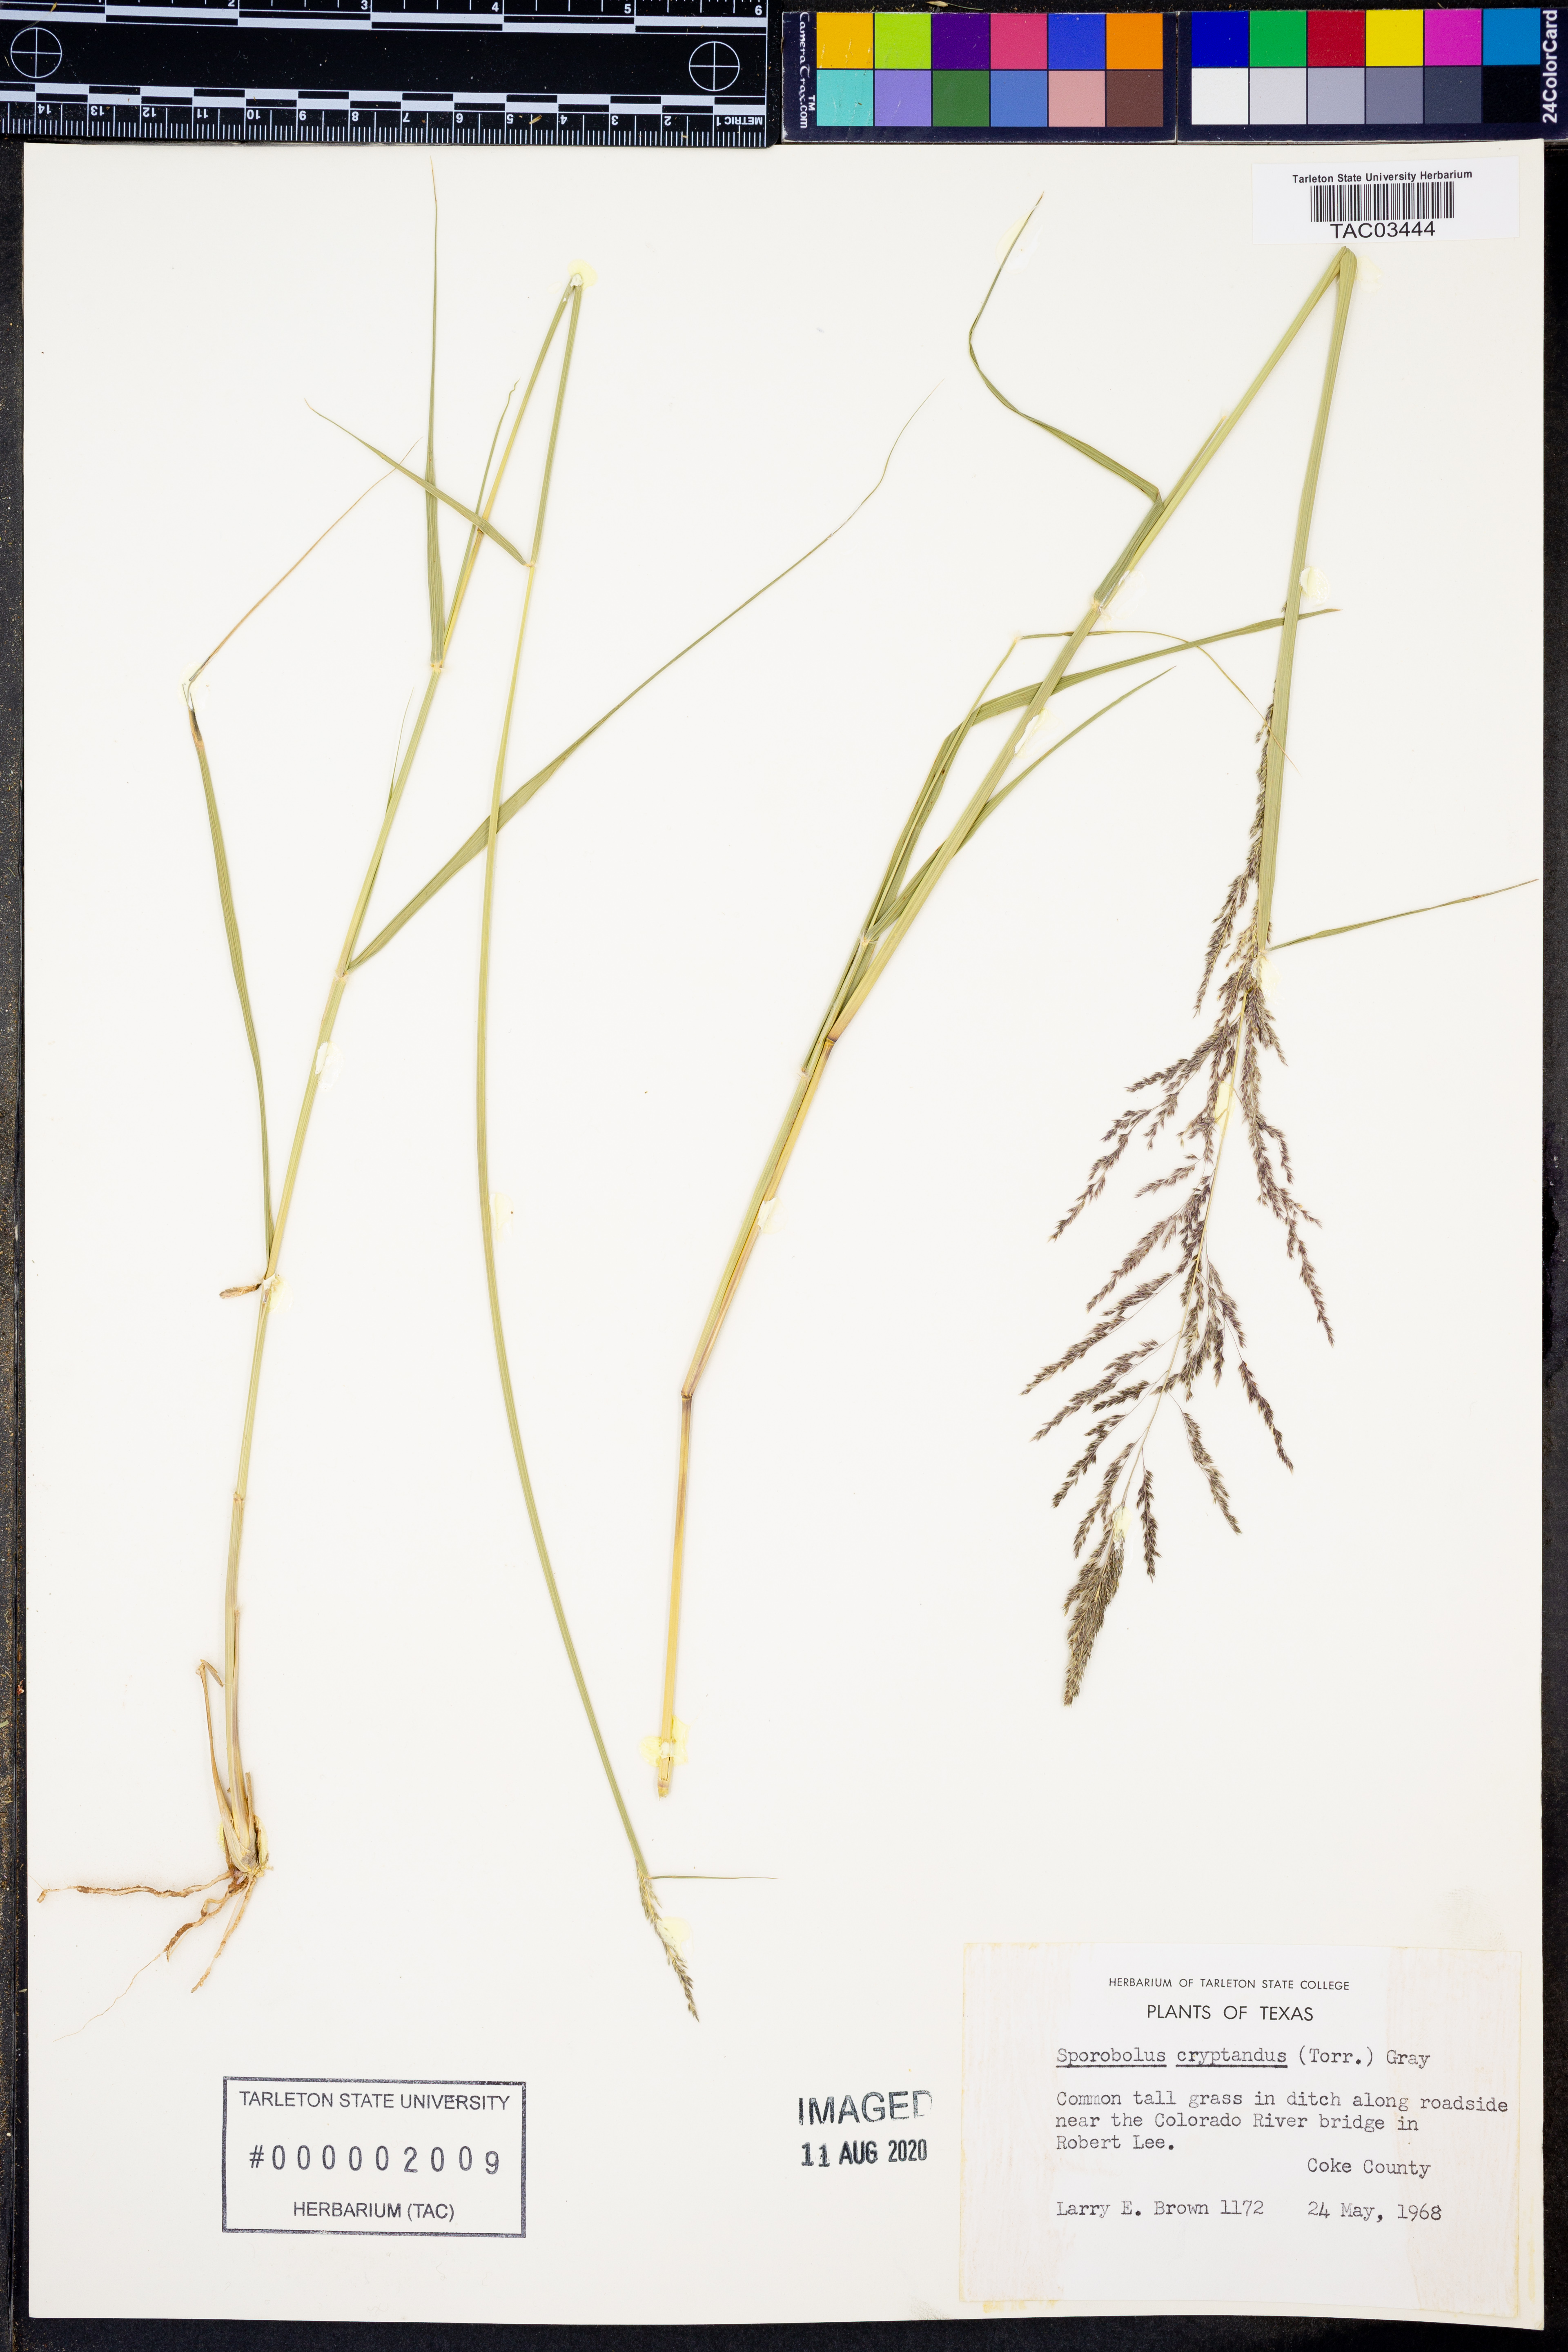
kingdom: Plantae
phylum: Tracheophyta
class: Liliopsida
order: Poales
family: Poaceae
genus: Sporobolus
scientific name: Sporobolus cryptandrus
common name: Sand dropseed
